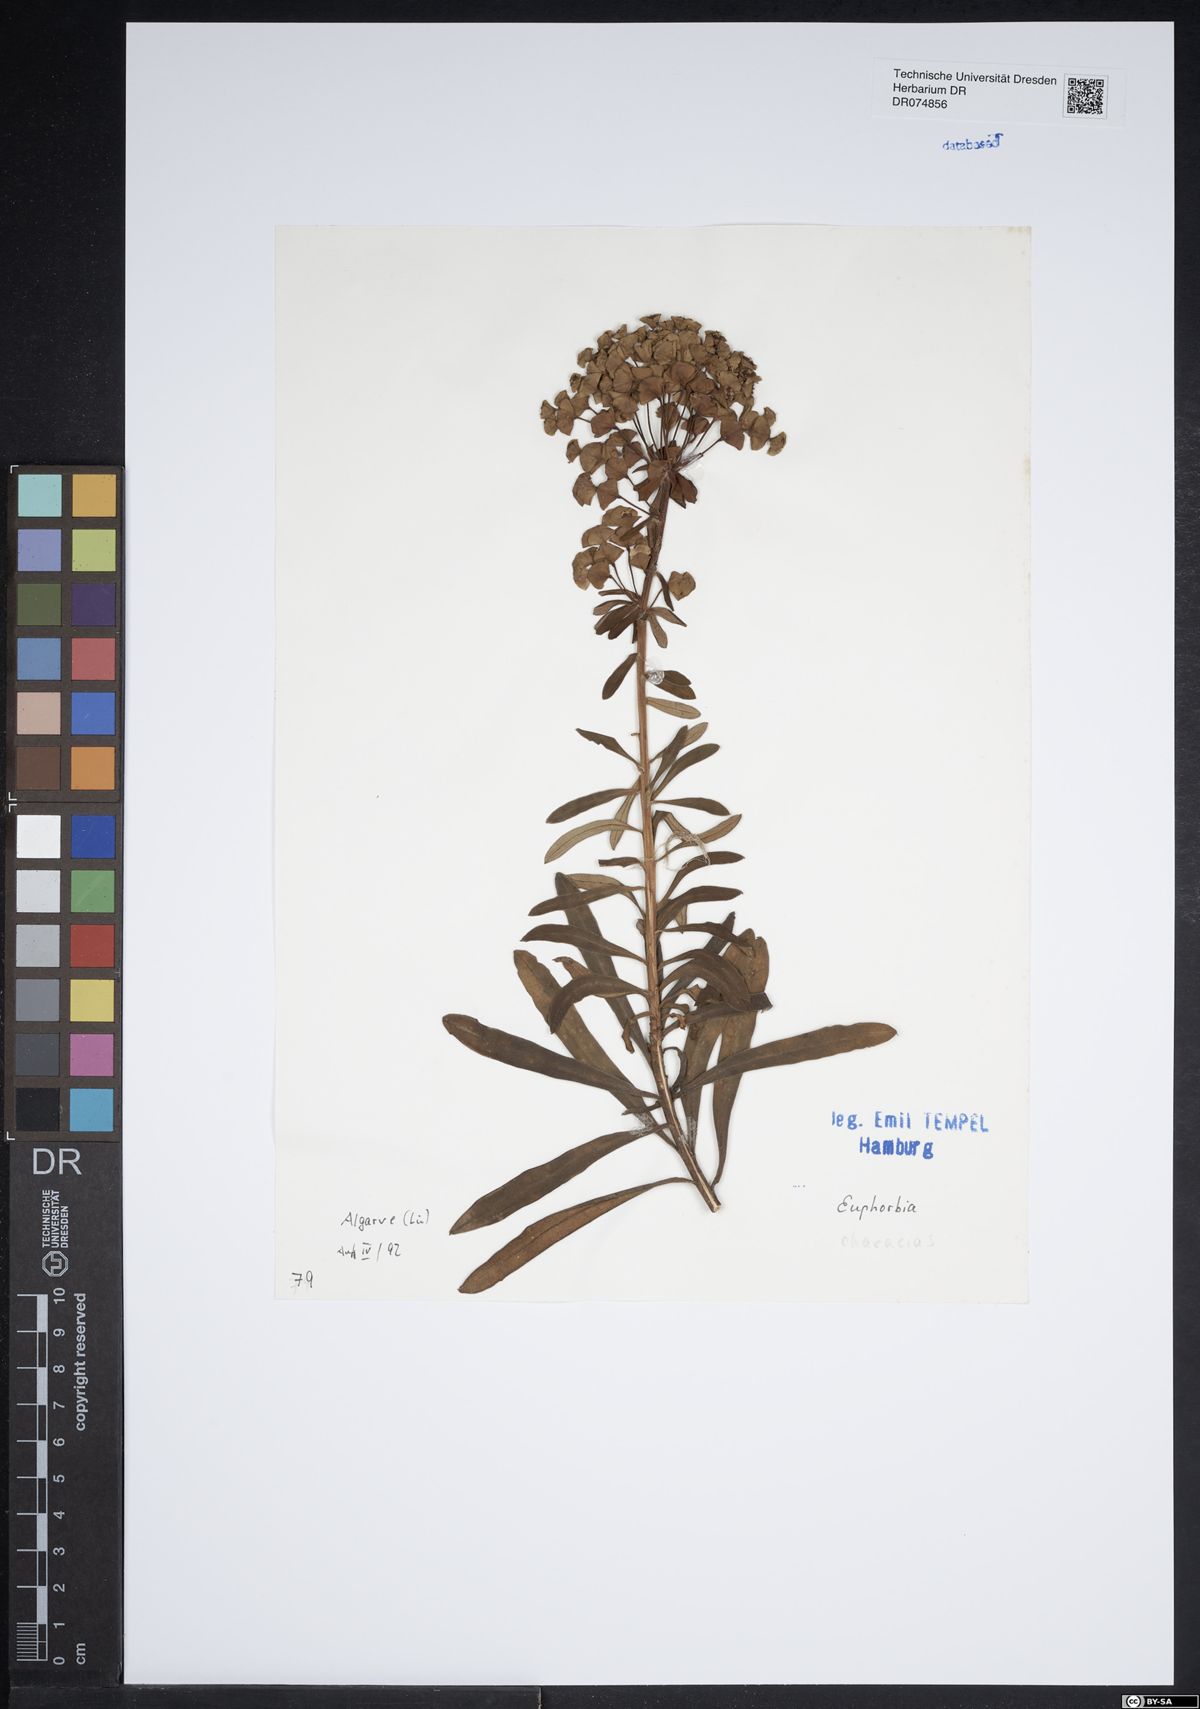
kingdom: Plantae
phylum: Tracheophyta
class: Magnoliopsida
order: Malpighiales
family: Euphorbiaceae
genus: Euphorbia
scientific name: Euphorbia characias
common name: Mediterranean spurge
